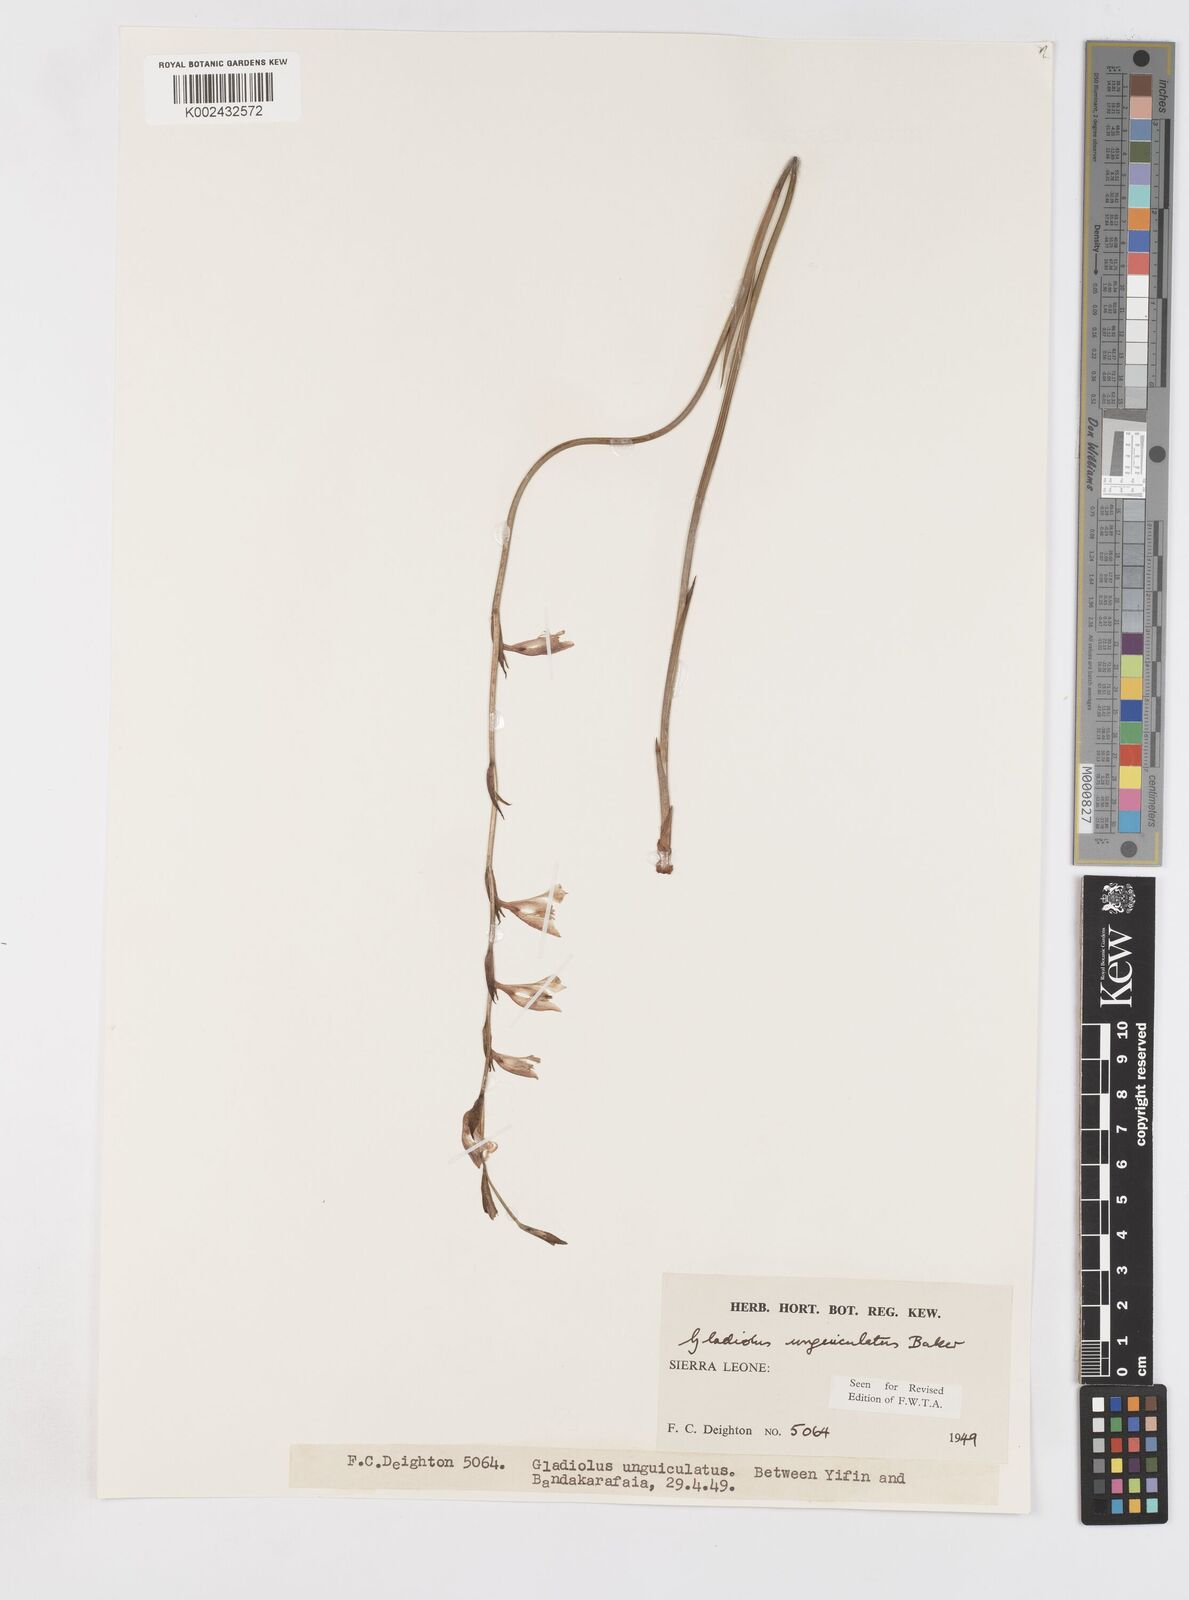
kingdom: Plantae
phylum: Tracheophyta
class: Liliopsida
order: Asparagales
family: Iridaceae
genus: Gladiolus
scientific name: Gladiolus unguiculatus
